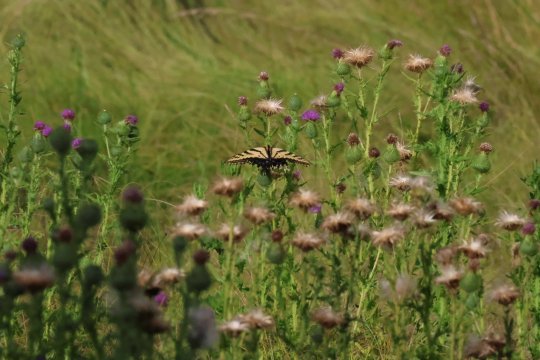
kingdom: Animalia
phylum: Arthropoda
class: Insecta
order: Lepidoptera
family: Papilionidae
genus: Papilio
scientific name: Papilio multicaudata
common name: Two-tailed Swallowtail
